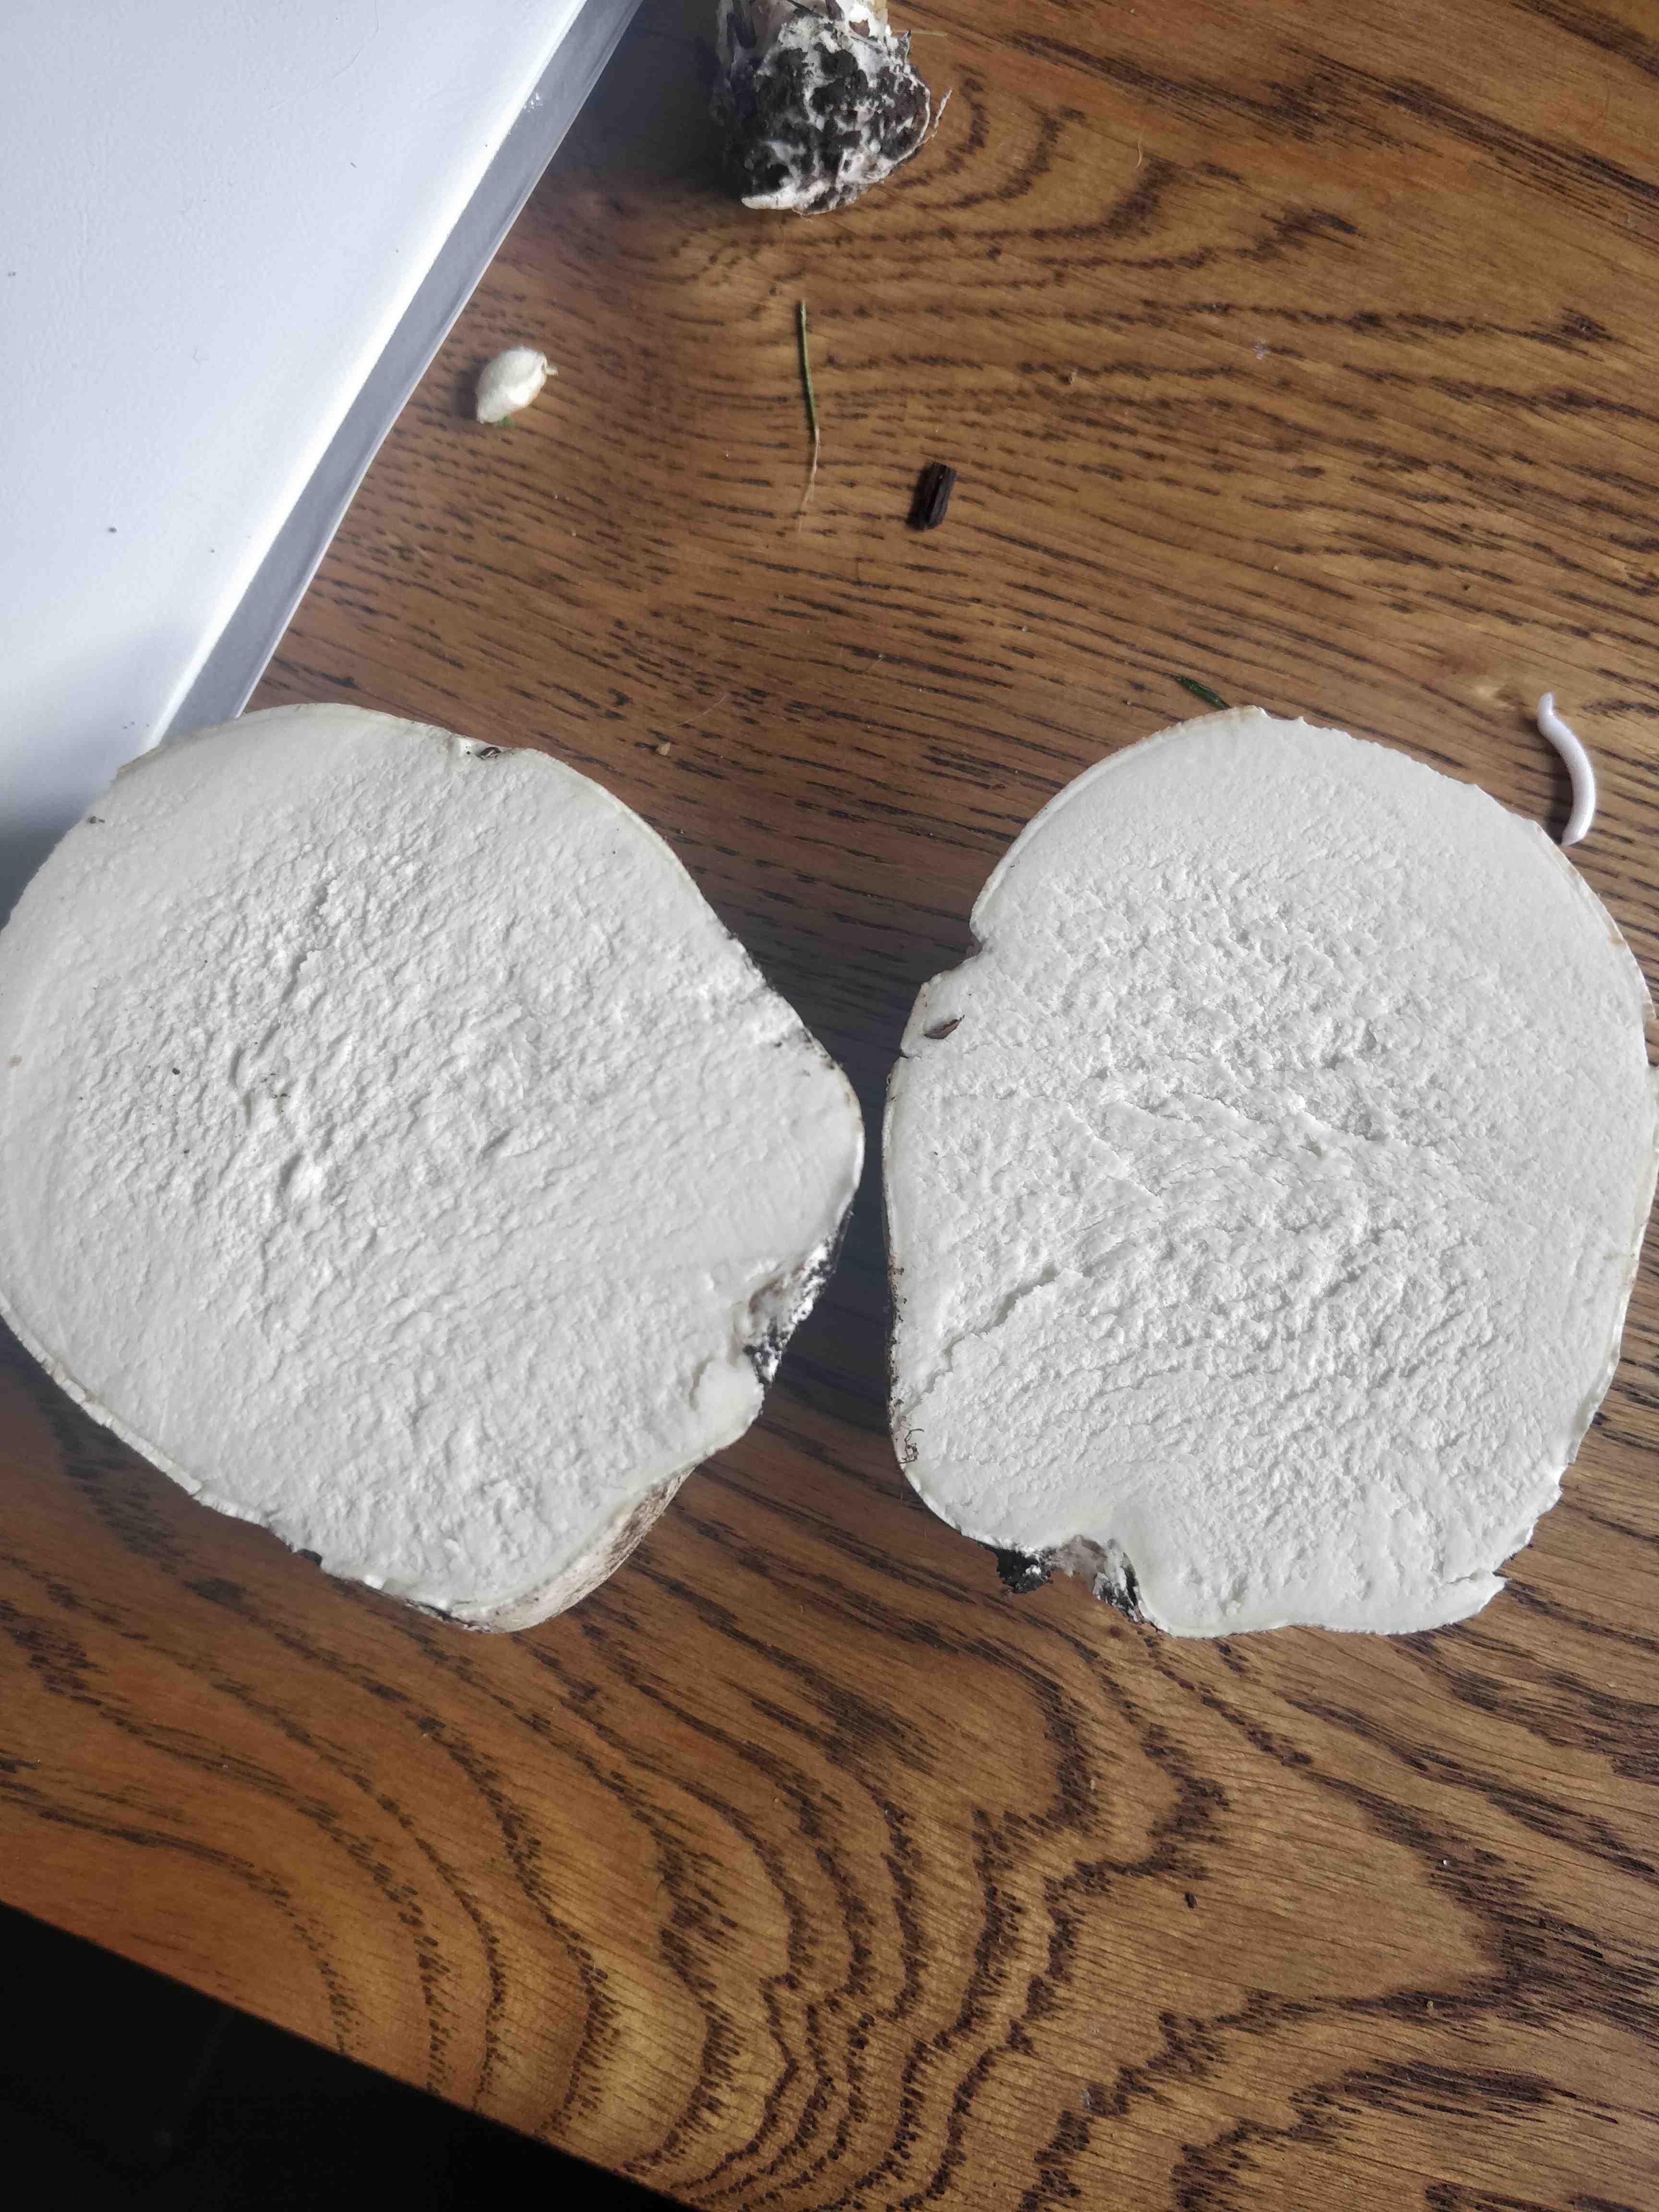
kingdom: Fungi
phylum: Basidiomycota
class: Agaricomycetes
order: Agaricales
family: Lycoperdaceae
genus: Calvatia
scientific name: Calvatia gigantea
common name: kæmpestøvbold
